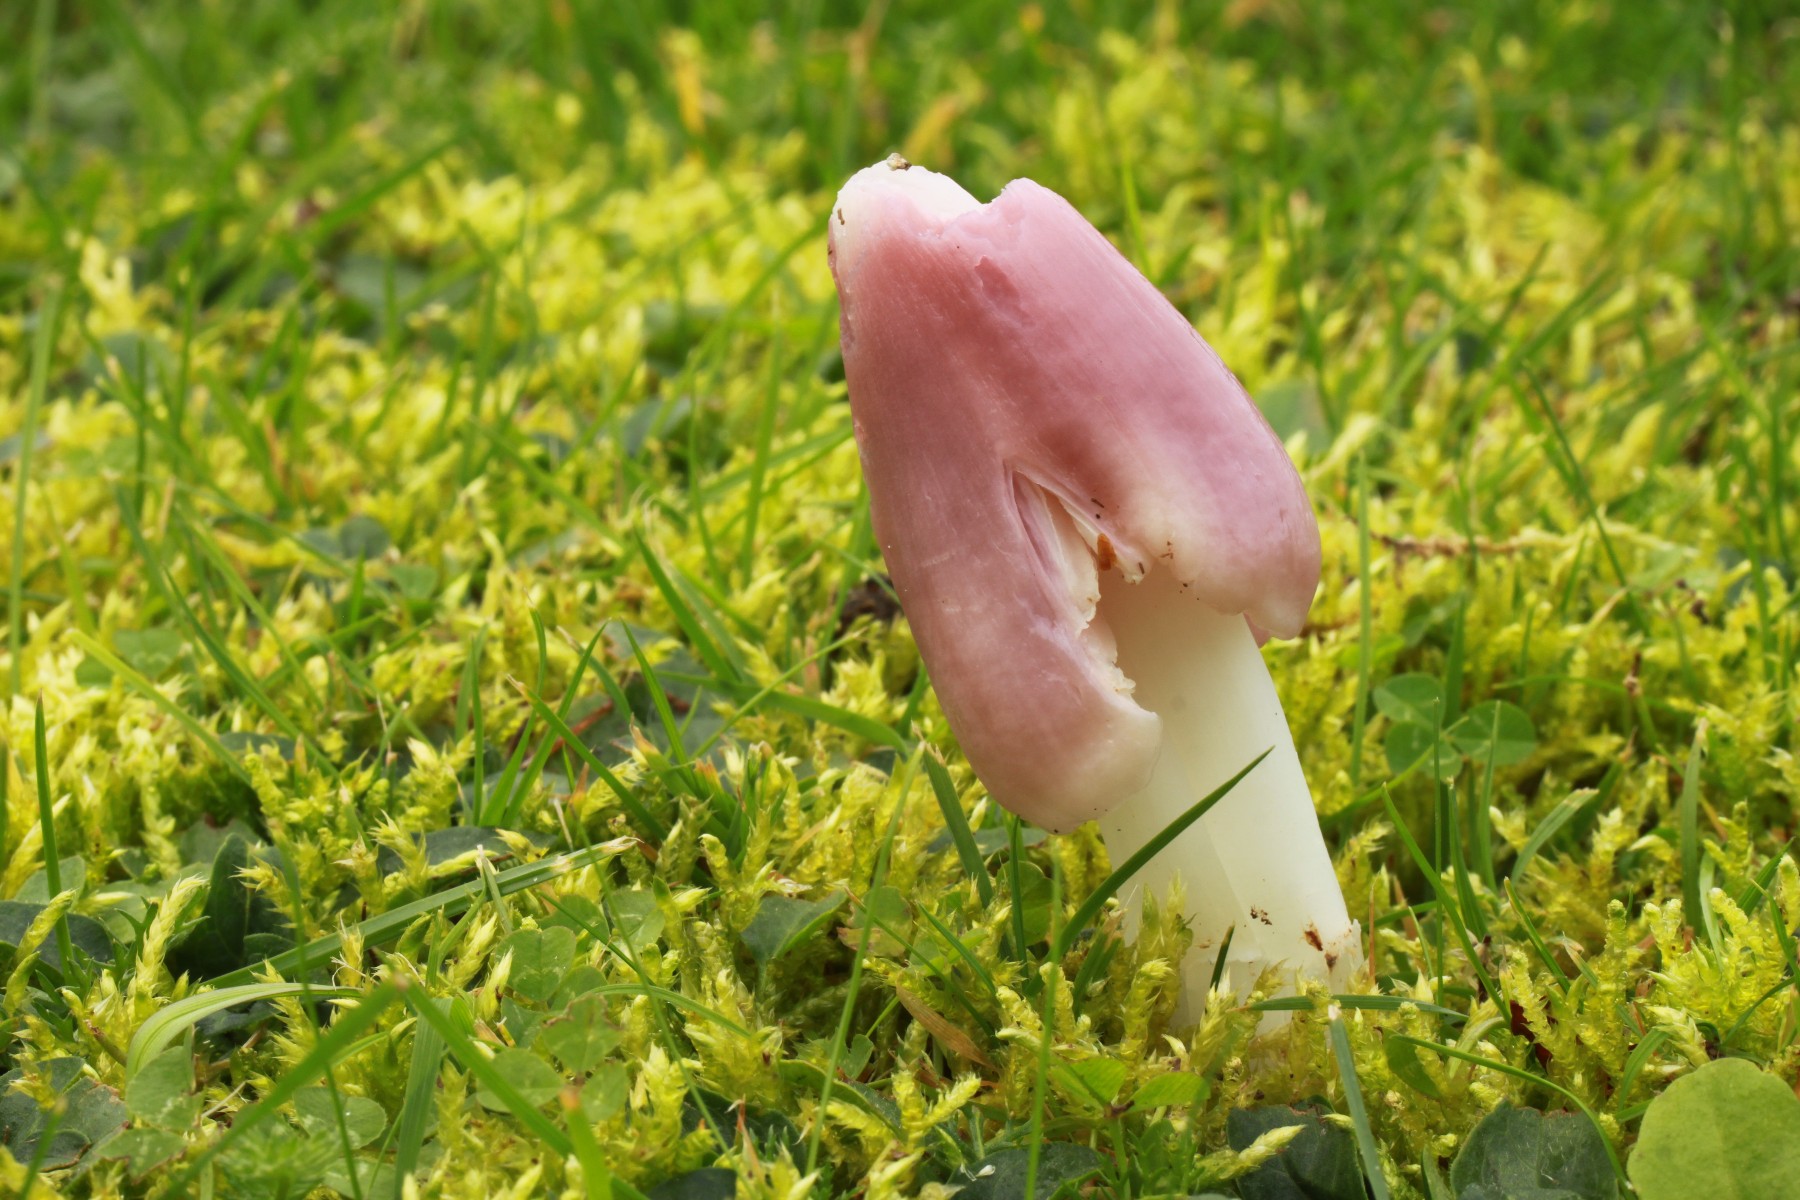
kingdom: Fungi
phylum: Basidiomycota
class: Agaricomycetes
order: Agaricales
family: Hygrophoraceae
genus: Porpolomopsis
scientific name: Porpolomopsis calyptriformis
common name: rosenrød vokshat
